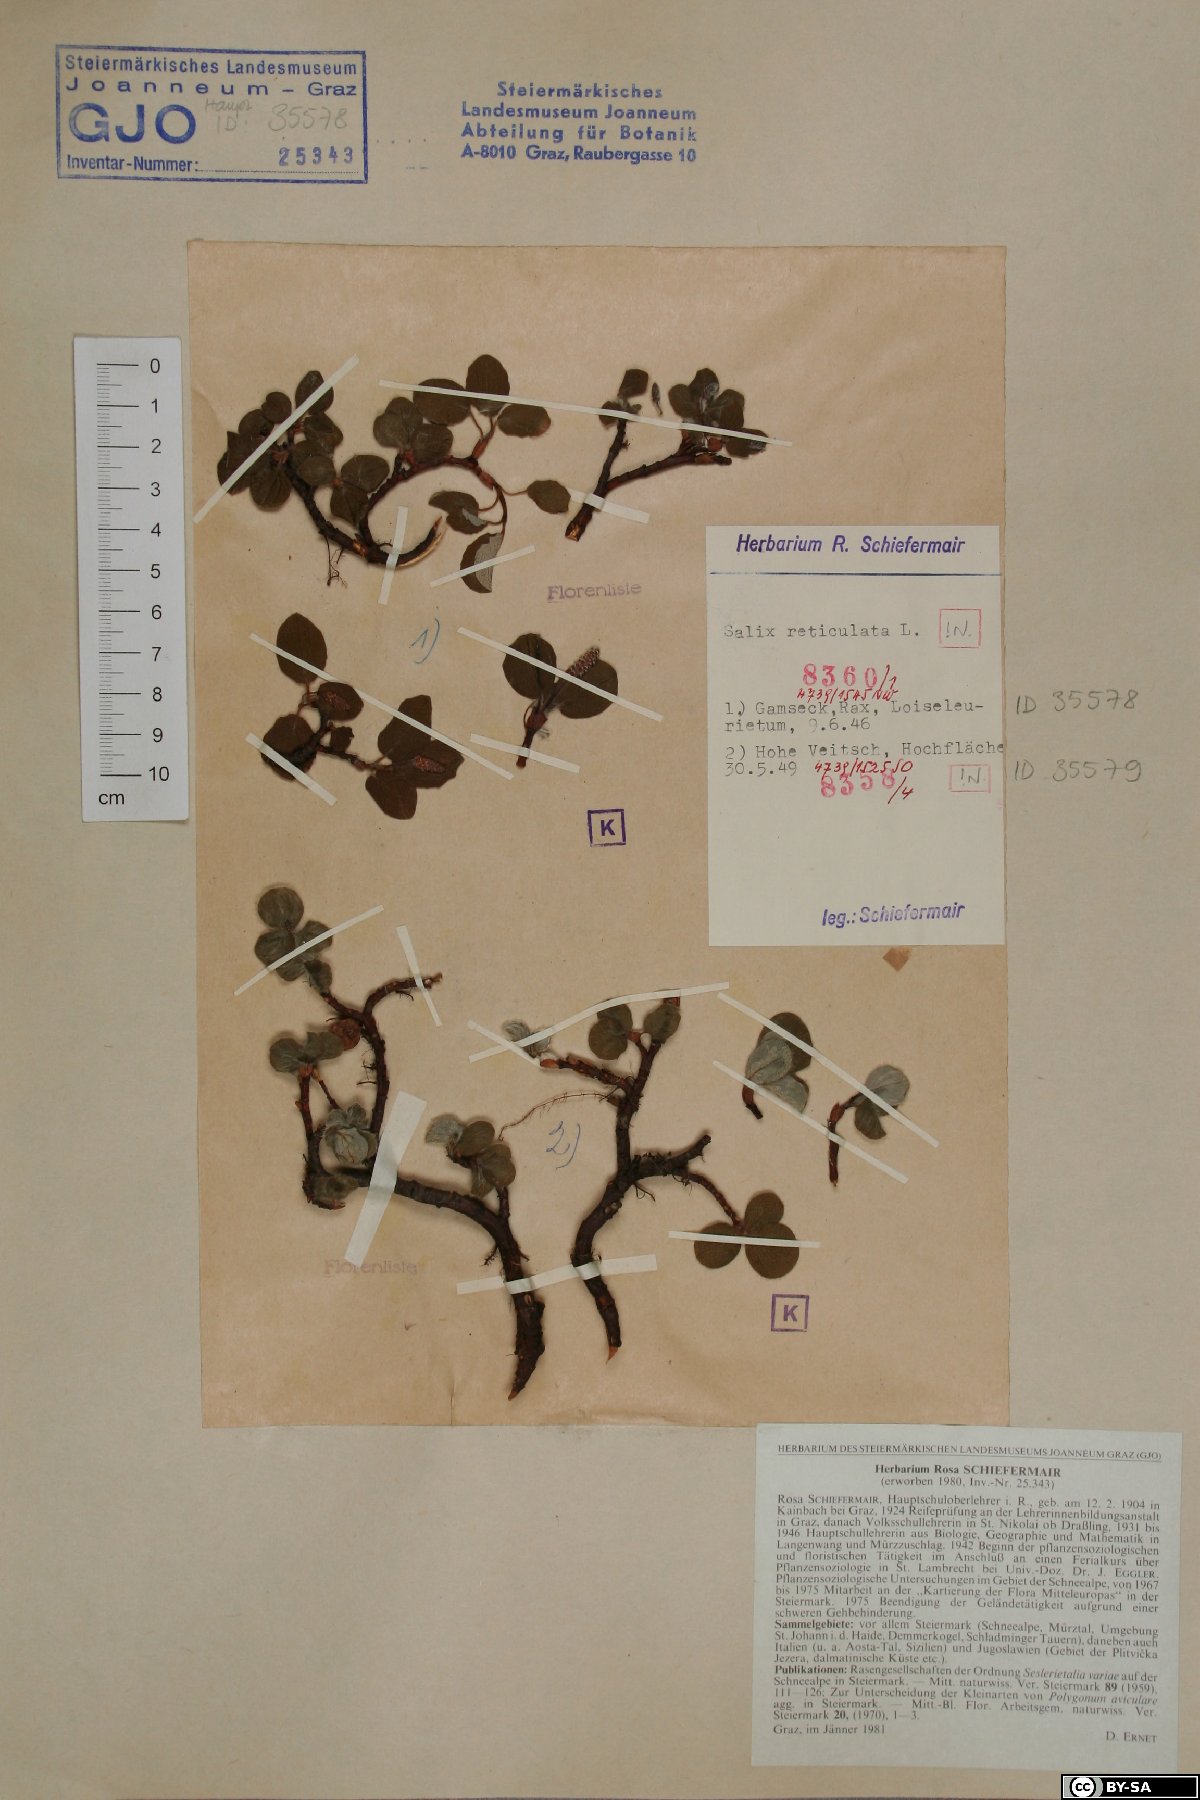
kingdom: Plantae
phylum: Tracheophyta
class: Magnoliopsida
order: Malpighiales
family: Salicaceae
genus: Salix
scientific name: Salix reticulata
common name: Net-leaved willow
